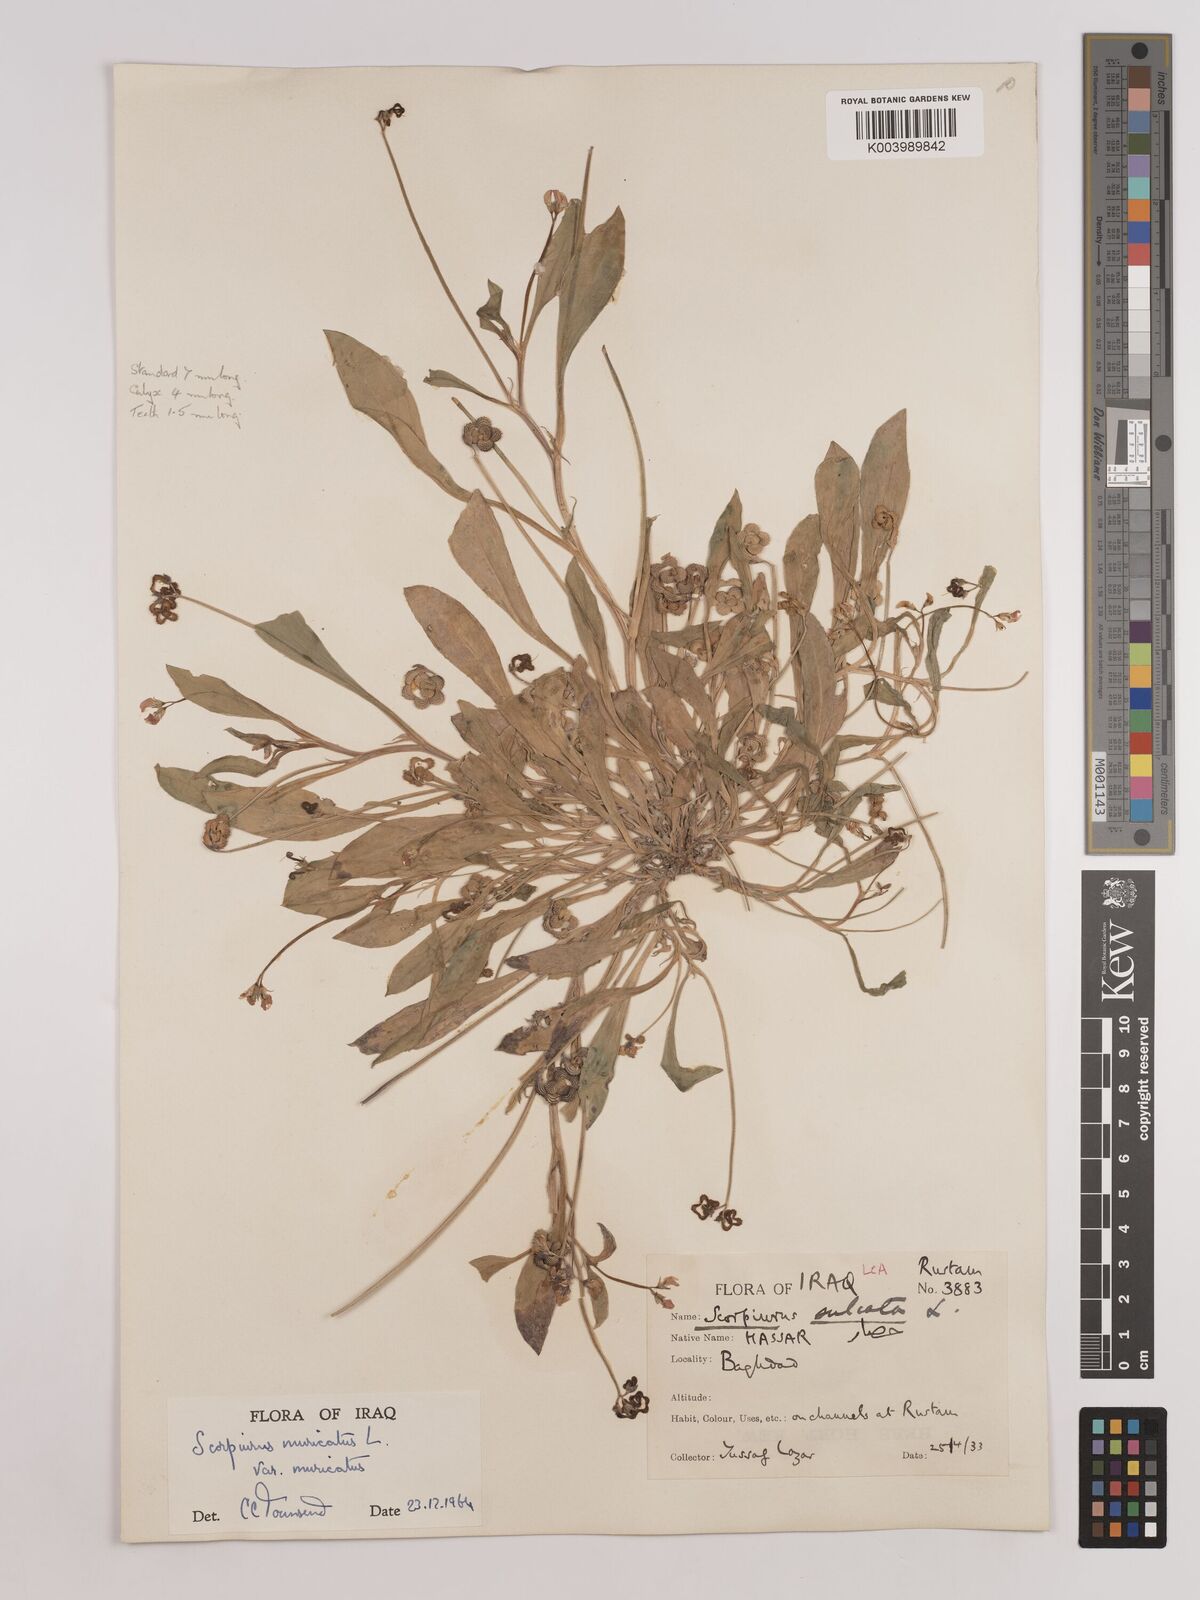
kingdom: Plantae
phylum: Tracheophyta
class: Magnoliopsida
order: Fabales
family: Fabaceae
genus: Scorpiurus
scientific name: Scorpiurus muricatus
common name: Caterpillar-plant
